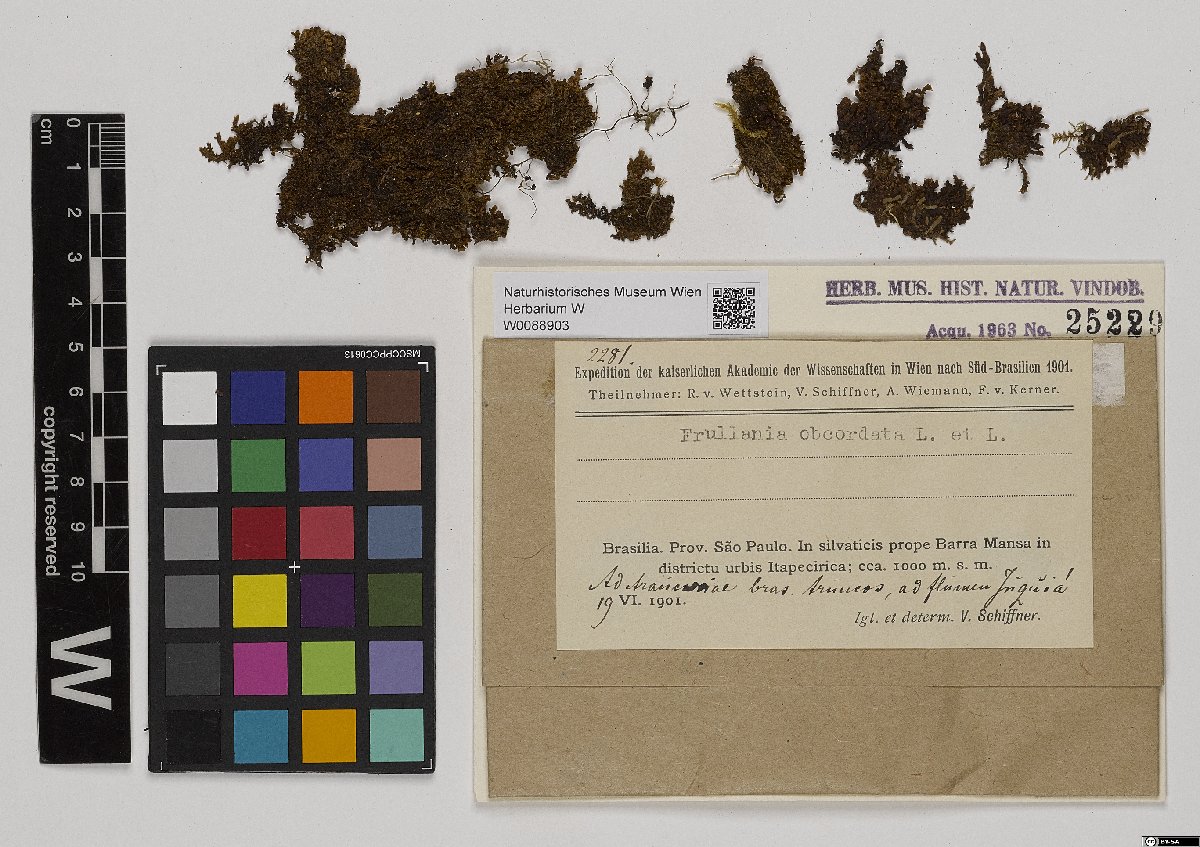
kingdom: Plantae
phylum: Marchantiophyta
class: Jungermanniopsida
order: Porellales
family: Frullaniaceae
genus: Frullania
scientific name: Frullania obcordata
